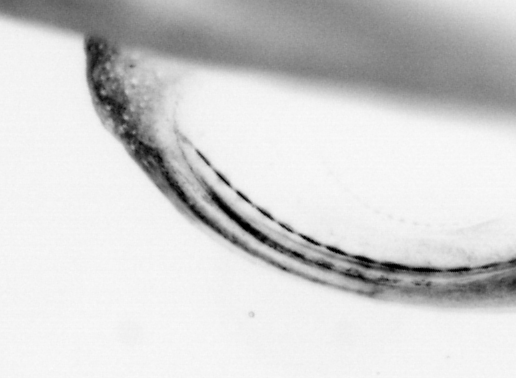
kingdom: Animalia
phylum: Chordata
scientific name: Chordata
